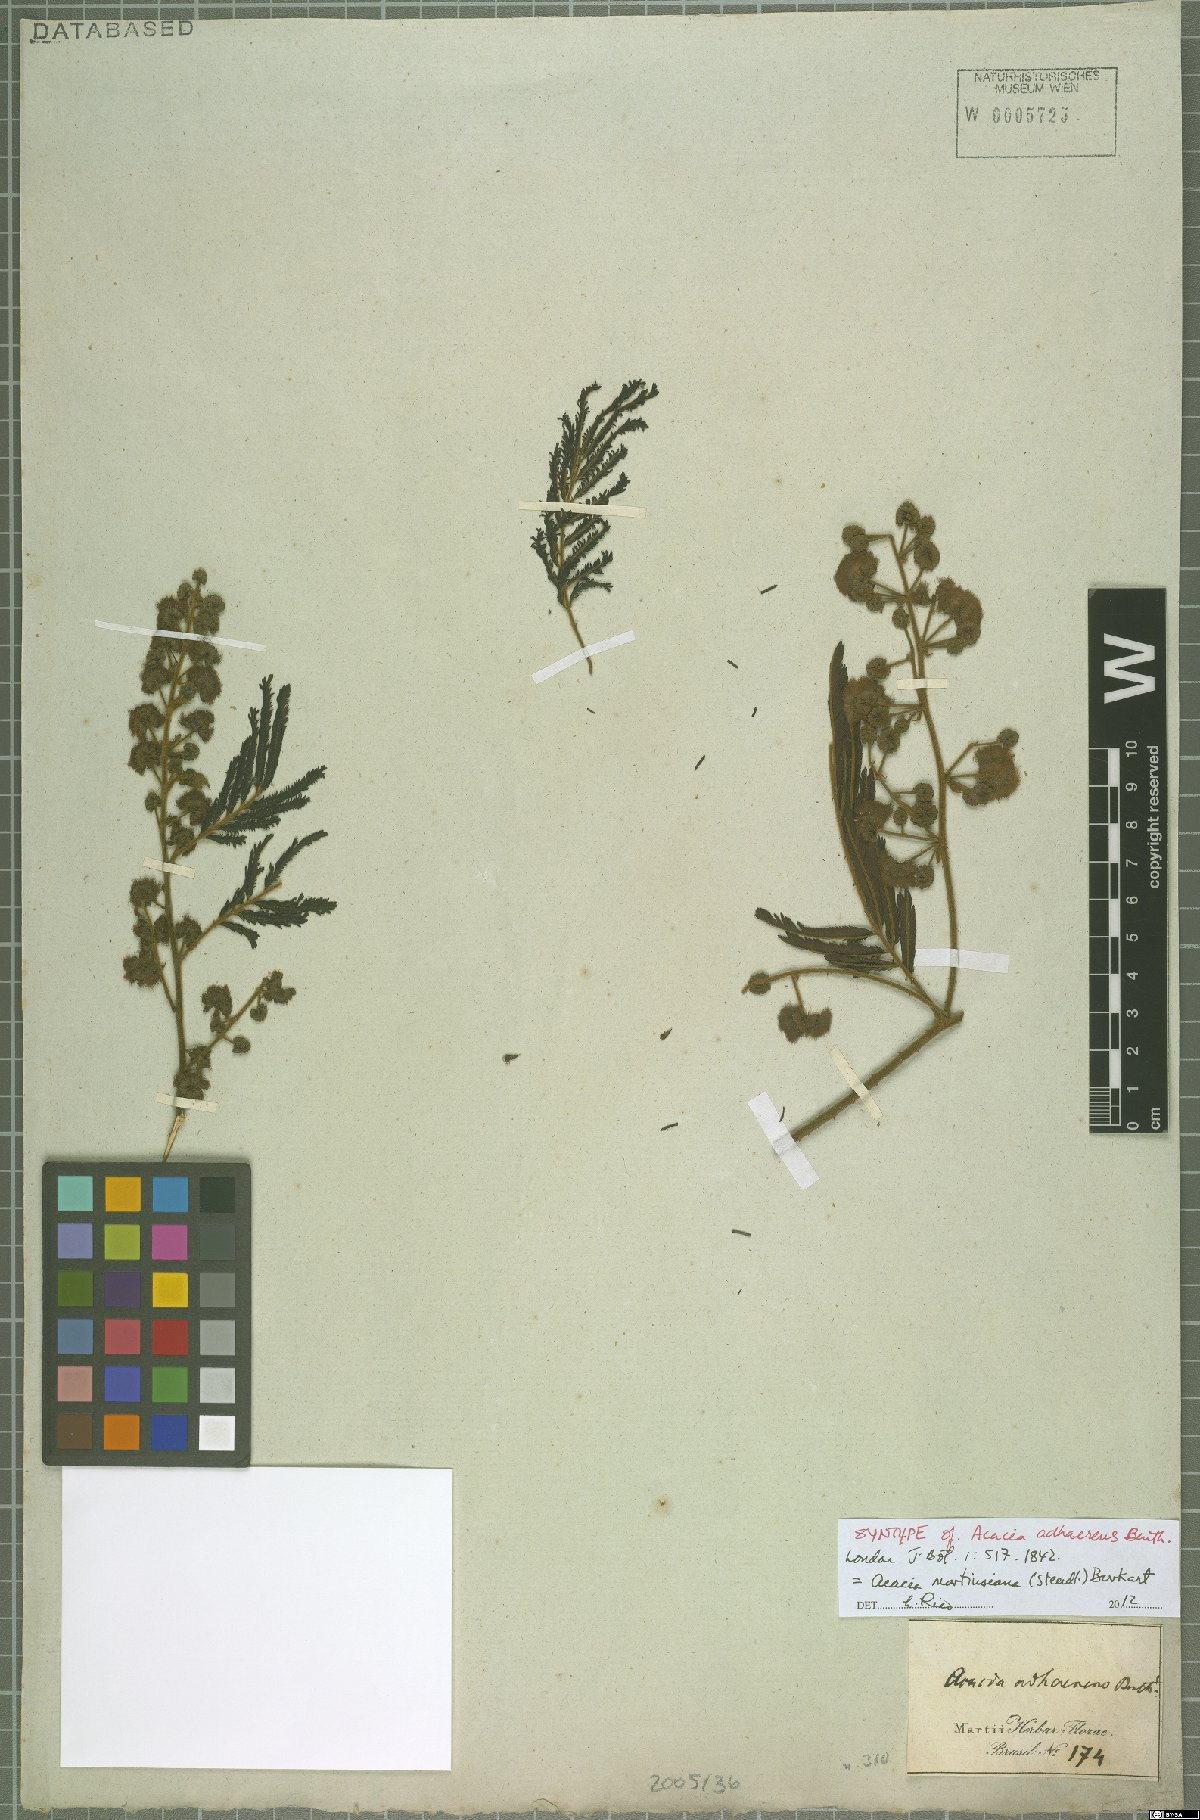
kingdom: Plantae
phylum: Tracheophyta
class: Magnoliopsida
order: Fabales
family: Fabaceae
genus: Senegalia
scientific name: Senegalia martiusiana
